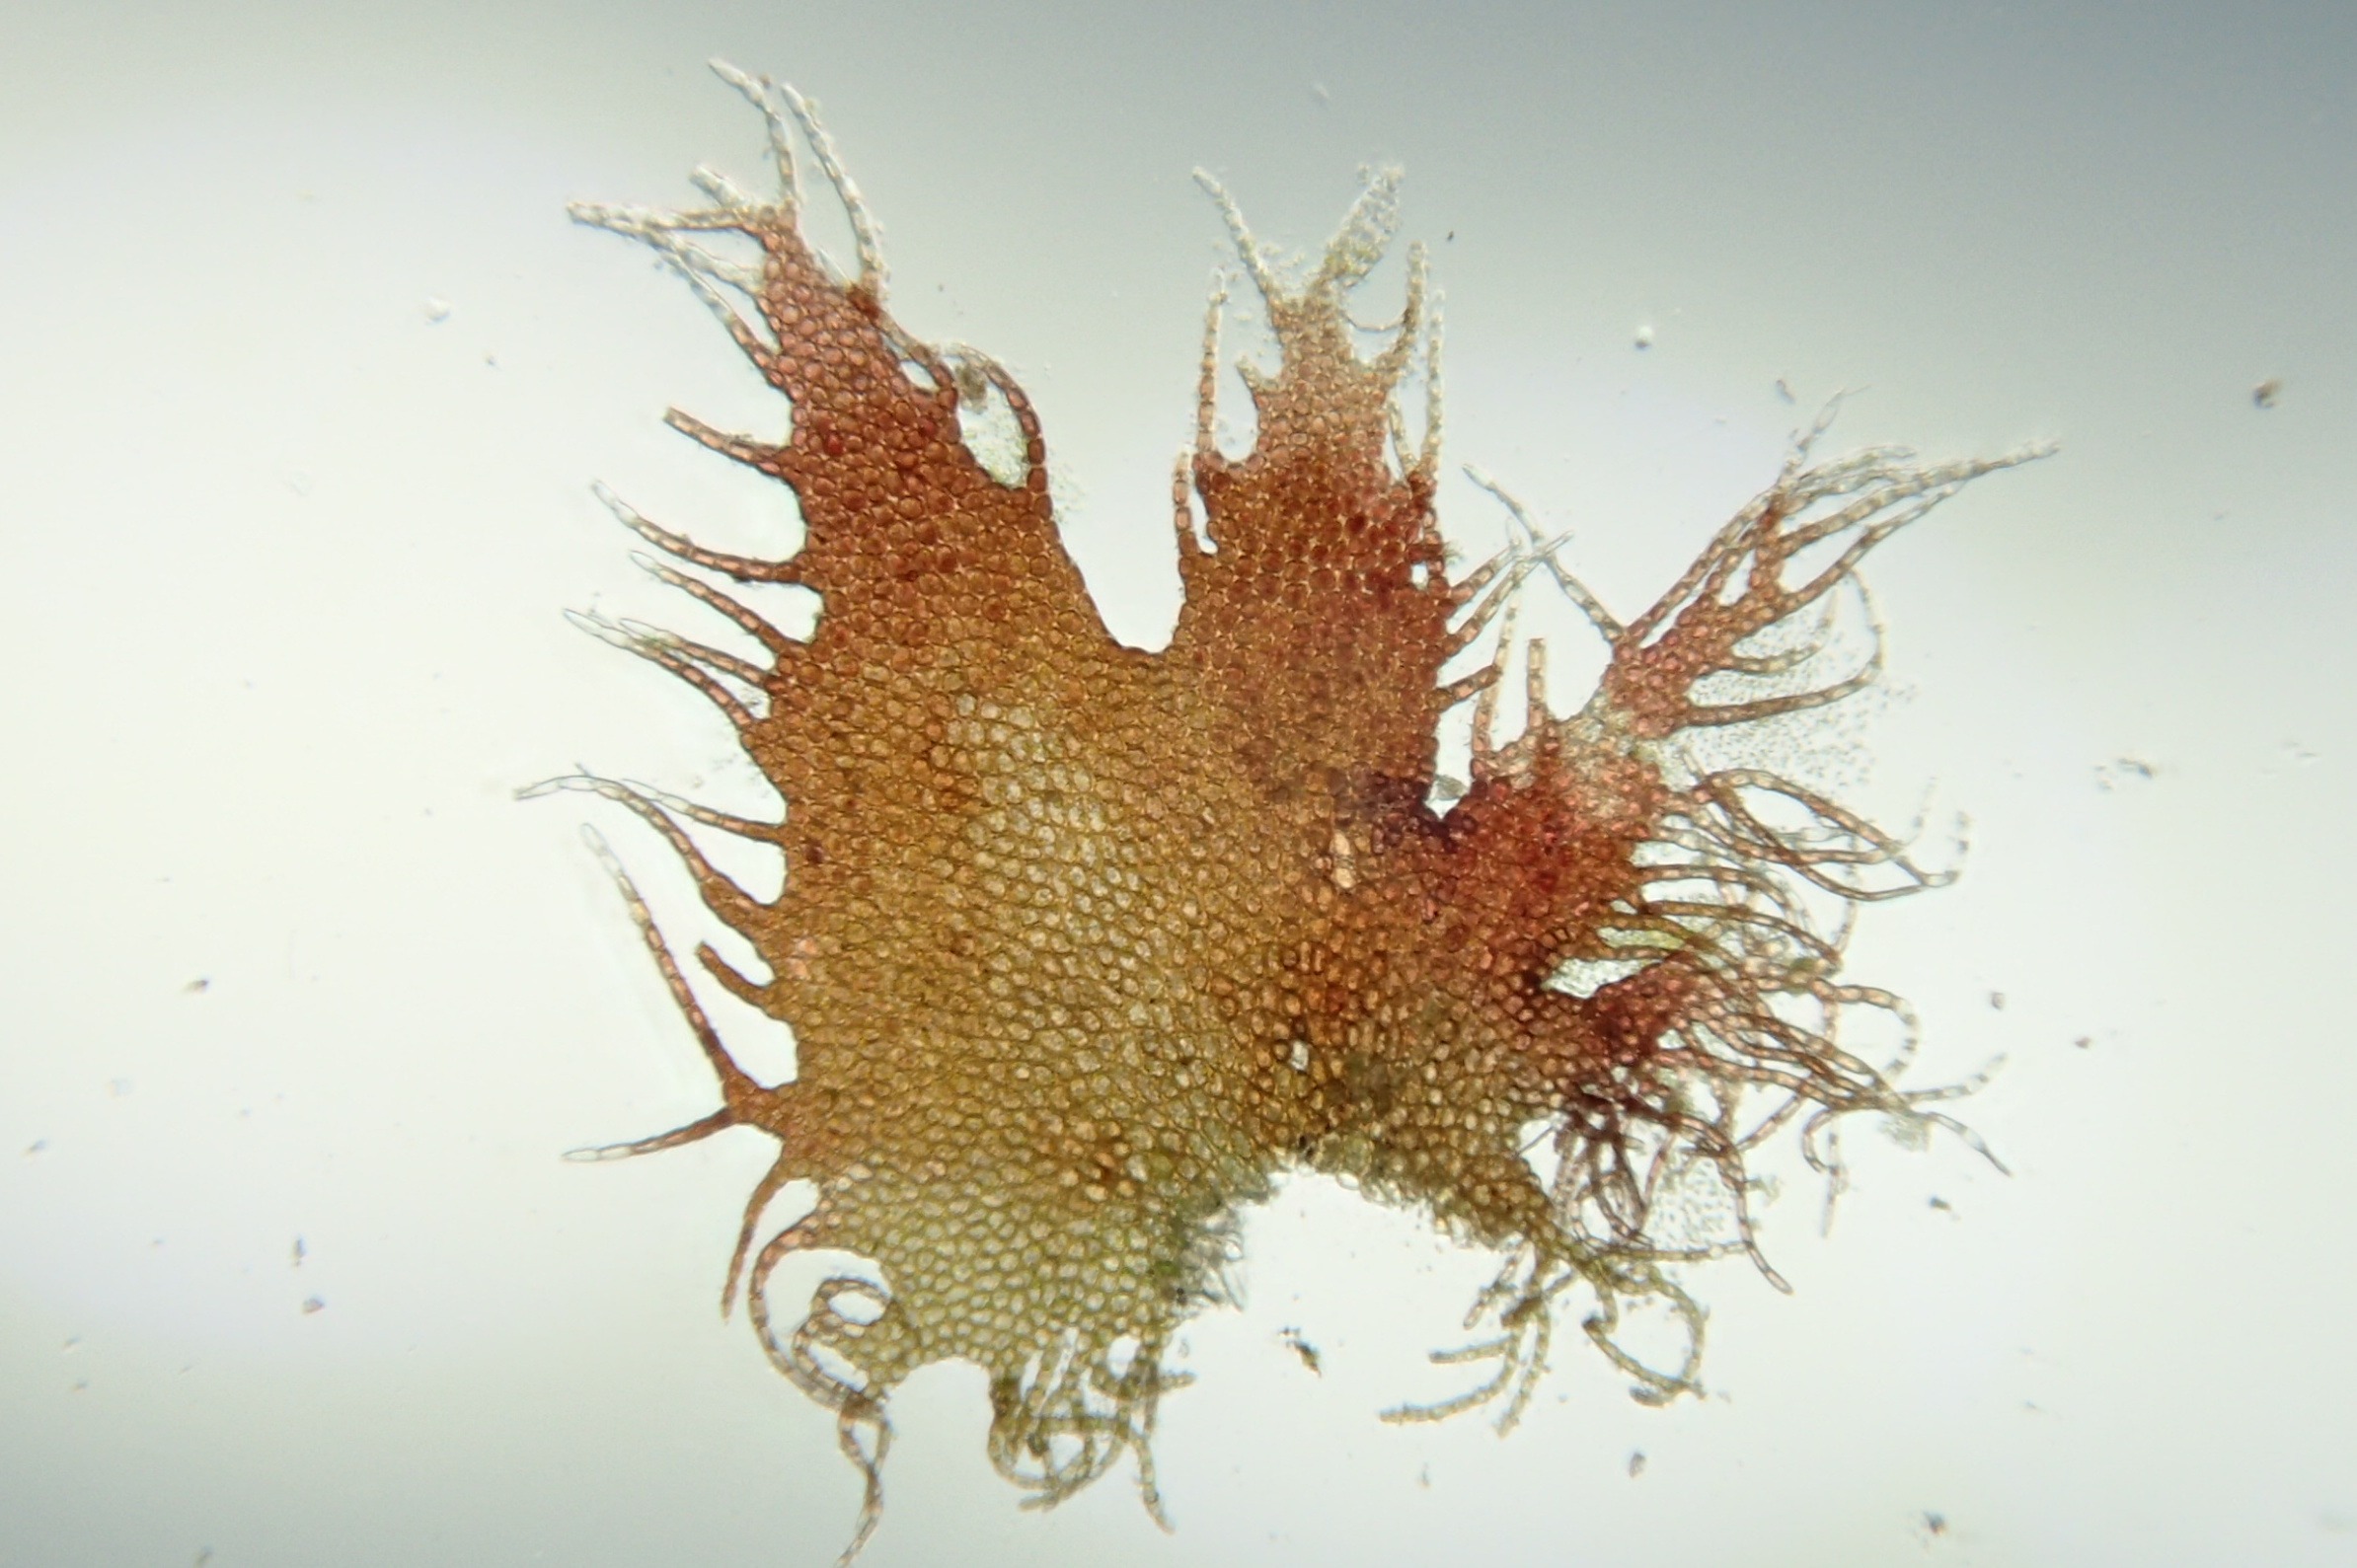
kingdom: Plantae
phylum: Marchantiophyta
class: Jungermanniopsida
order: Ptilidiales
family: Ptilidiaceae
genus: Ptilidium
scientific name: Ptilidium ciliare
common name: Almindelig frynsemos
